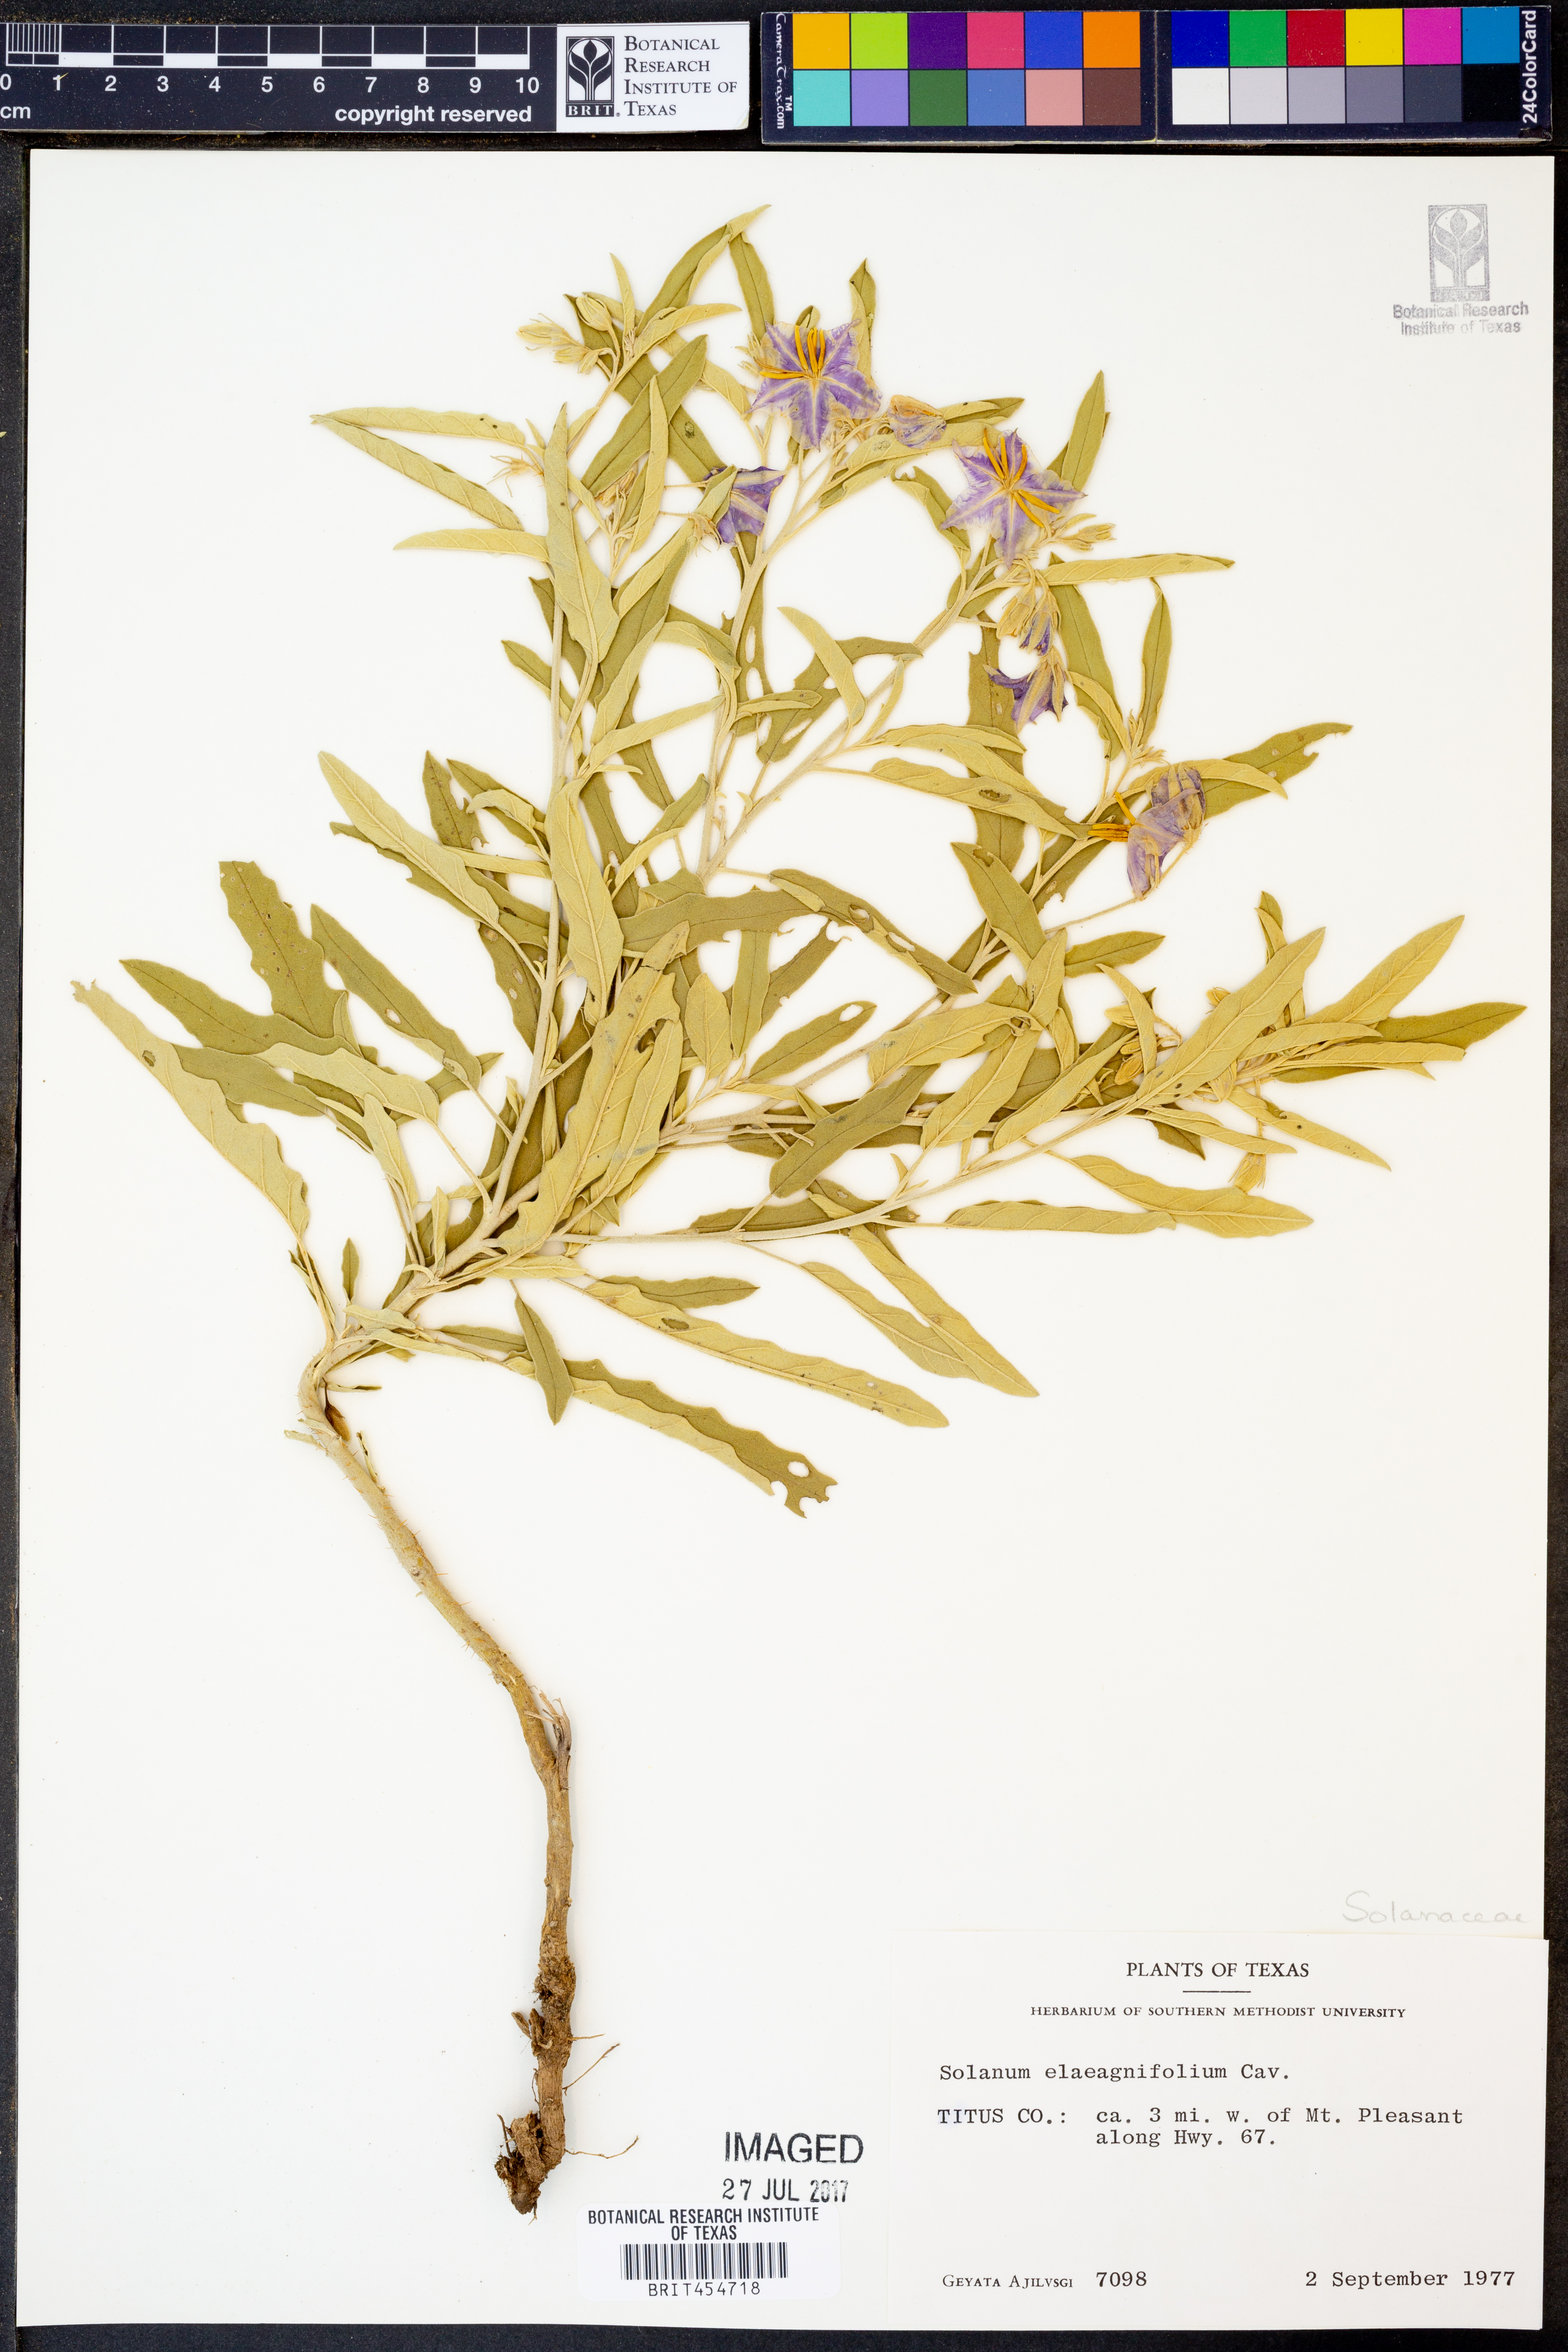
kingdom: Plantae
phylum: Tracheophyta
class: Magnoliopsida
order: Solanales
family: Solanaceae
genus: Solanum
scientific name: Solanum elaeagnifolium
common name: Silverleaf nightshade
